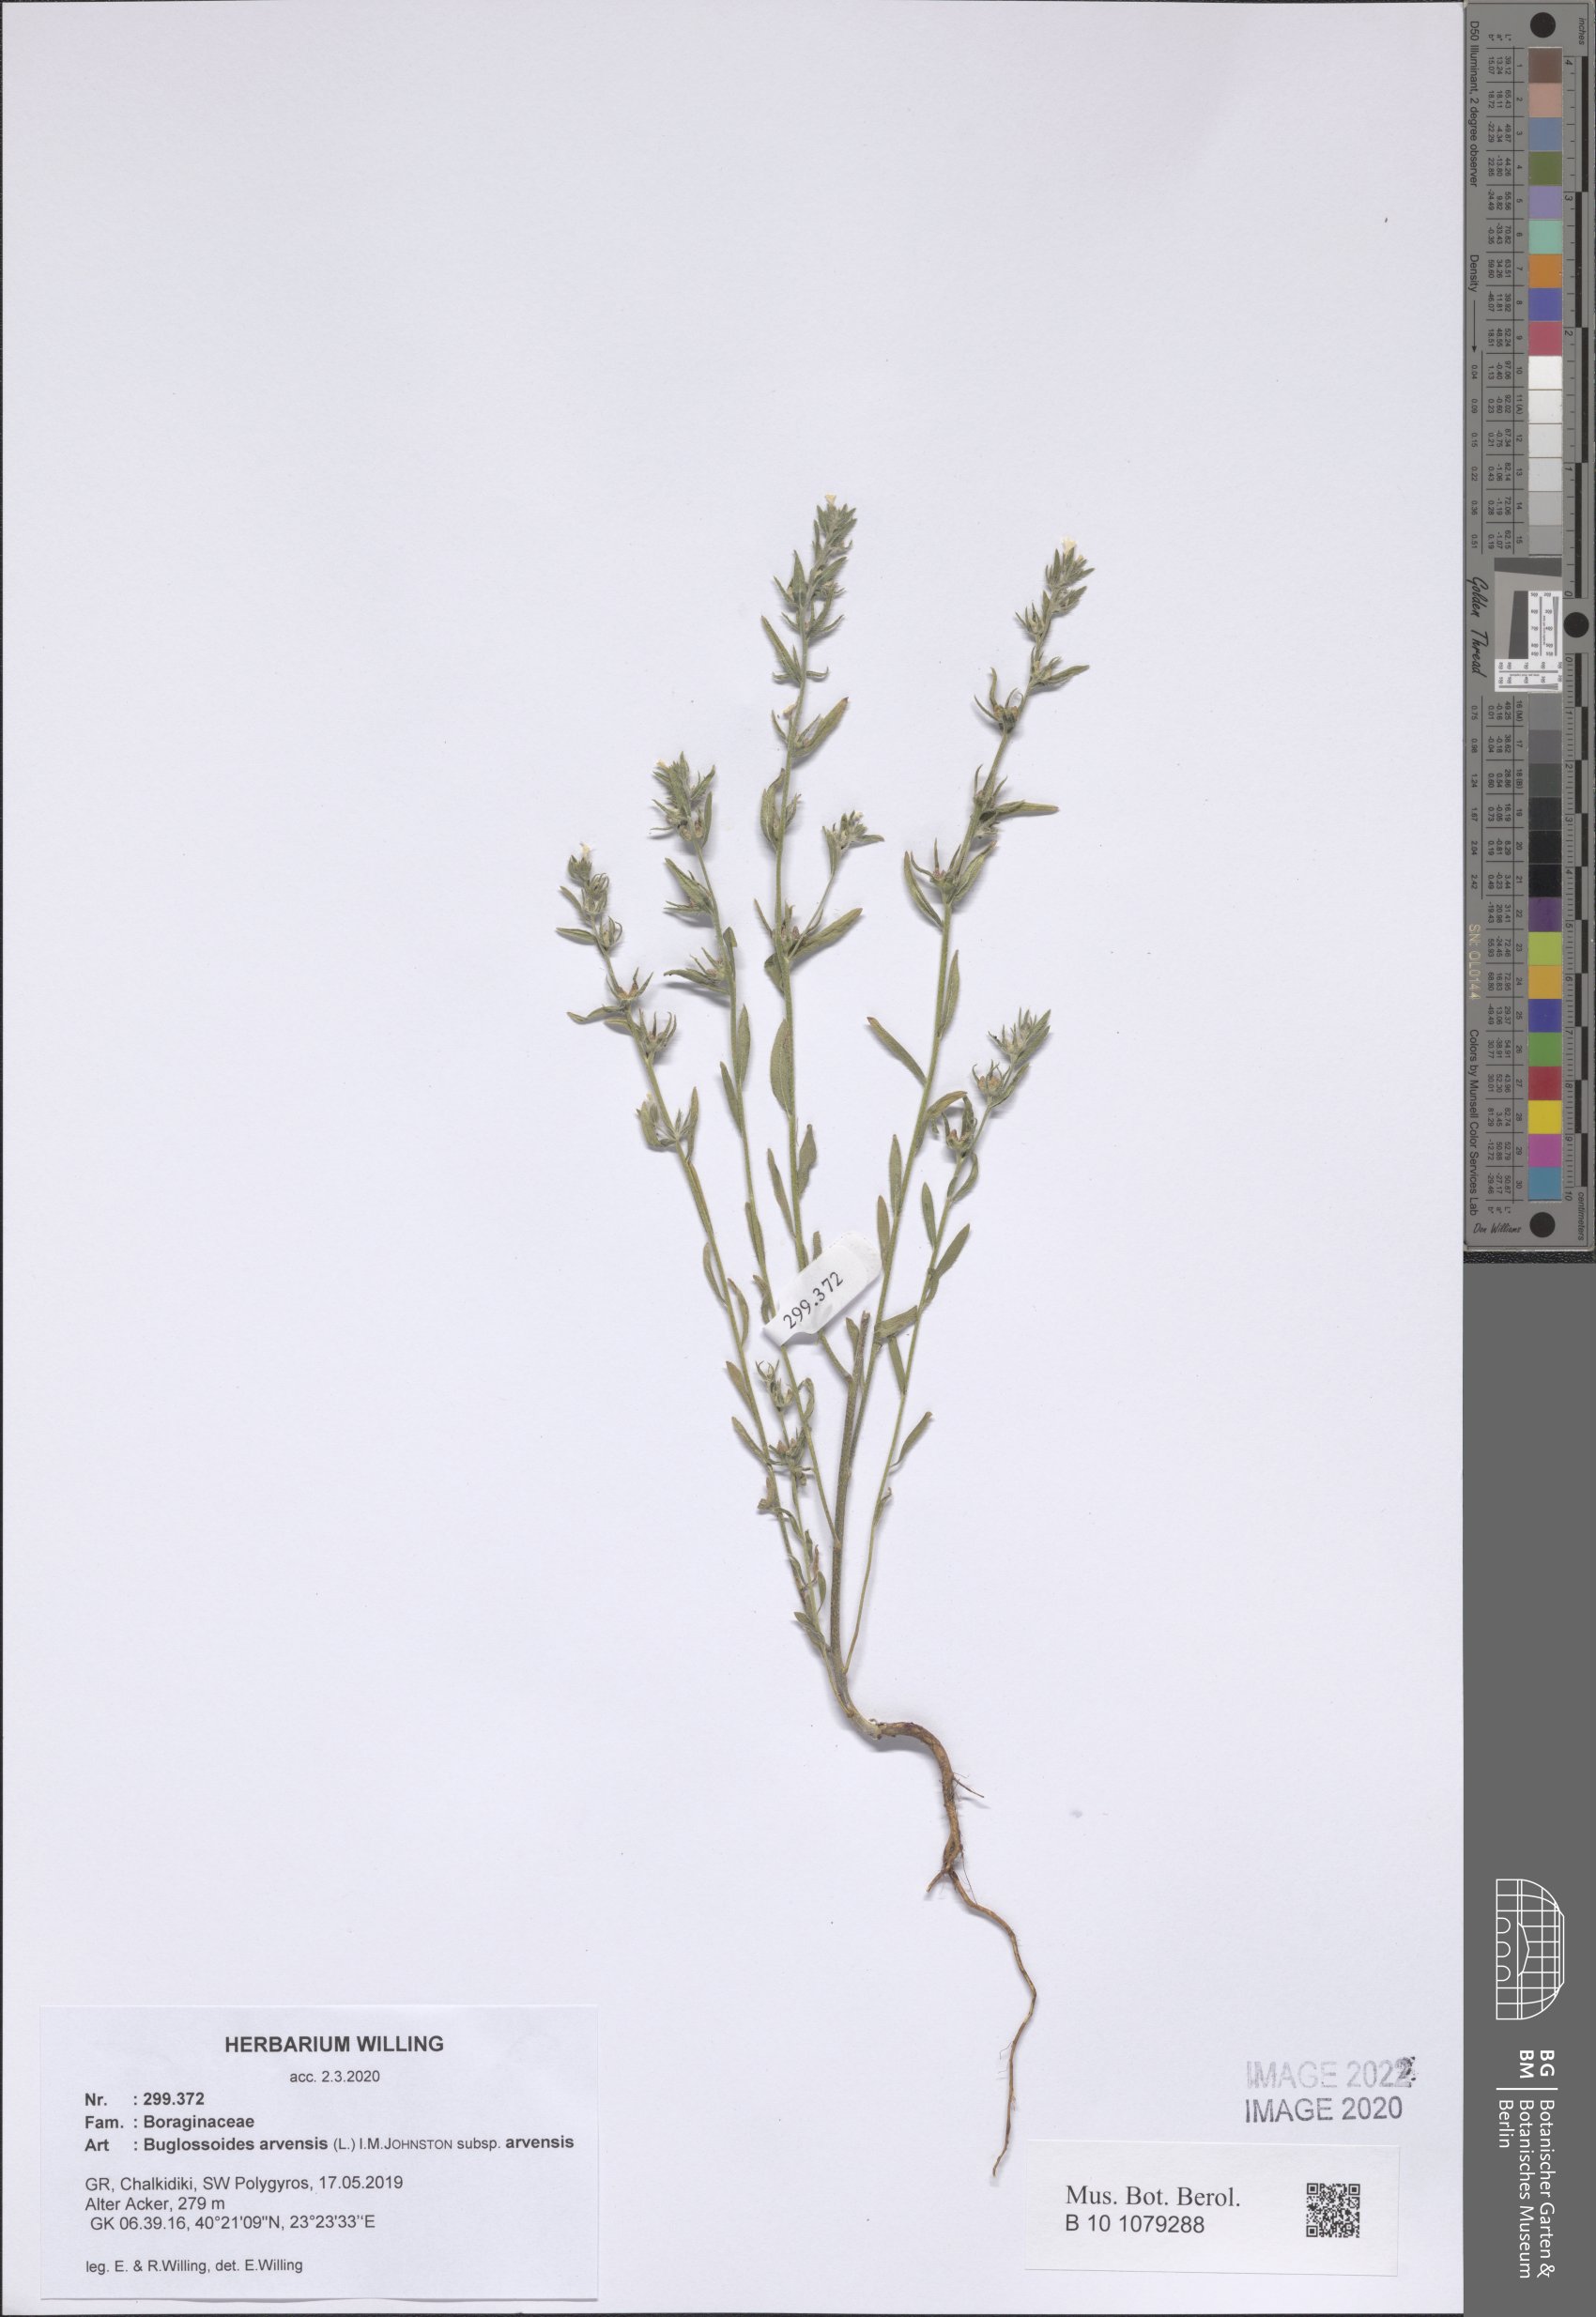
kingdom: Plantae
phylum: Tracheophyta
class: Magnoliopsida
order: Boraginales
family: Boraginaceae
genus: Buglossoides
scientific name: Buglossoides arvensis
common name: Corn gromwell
